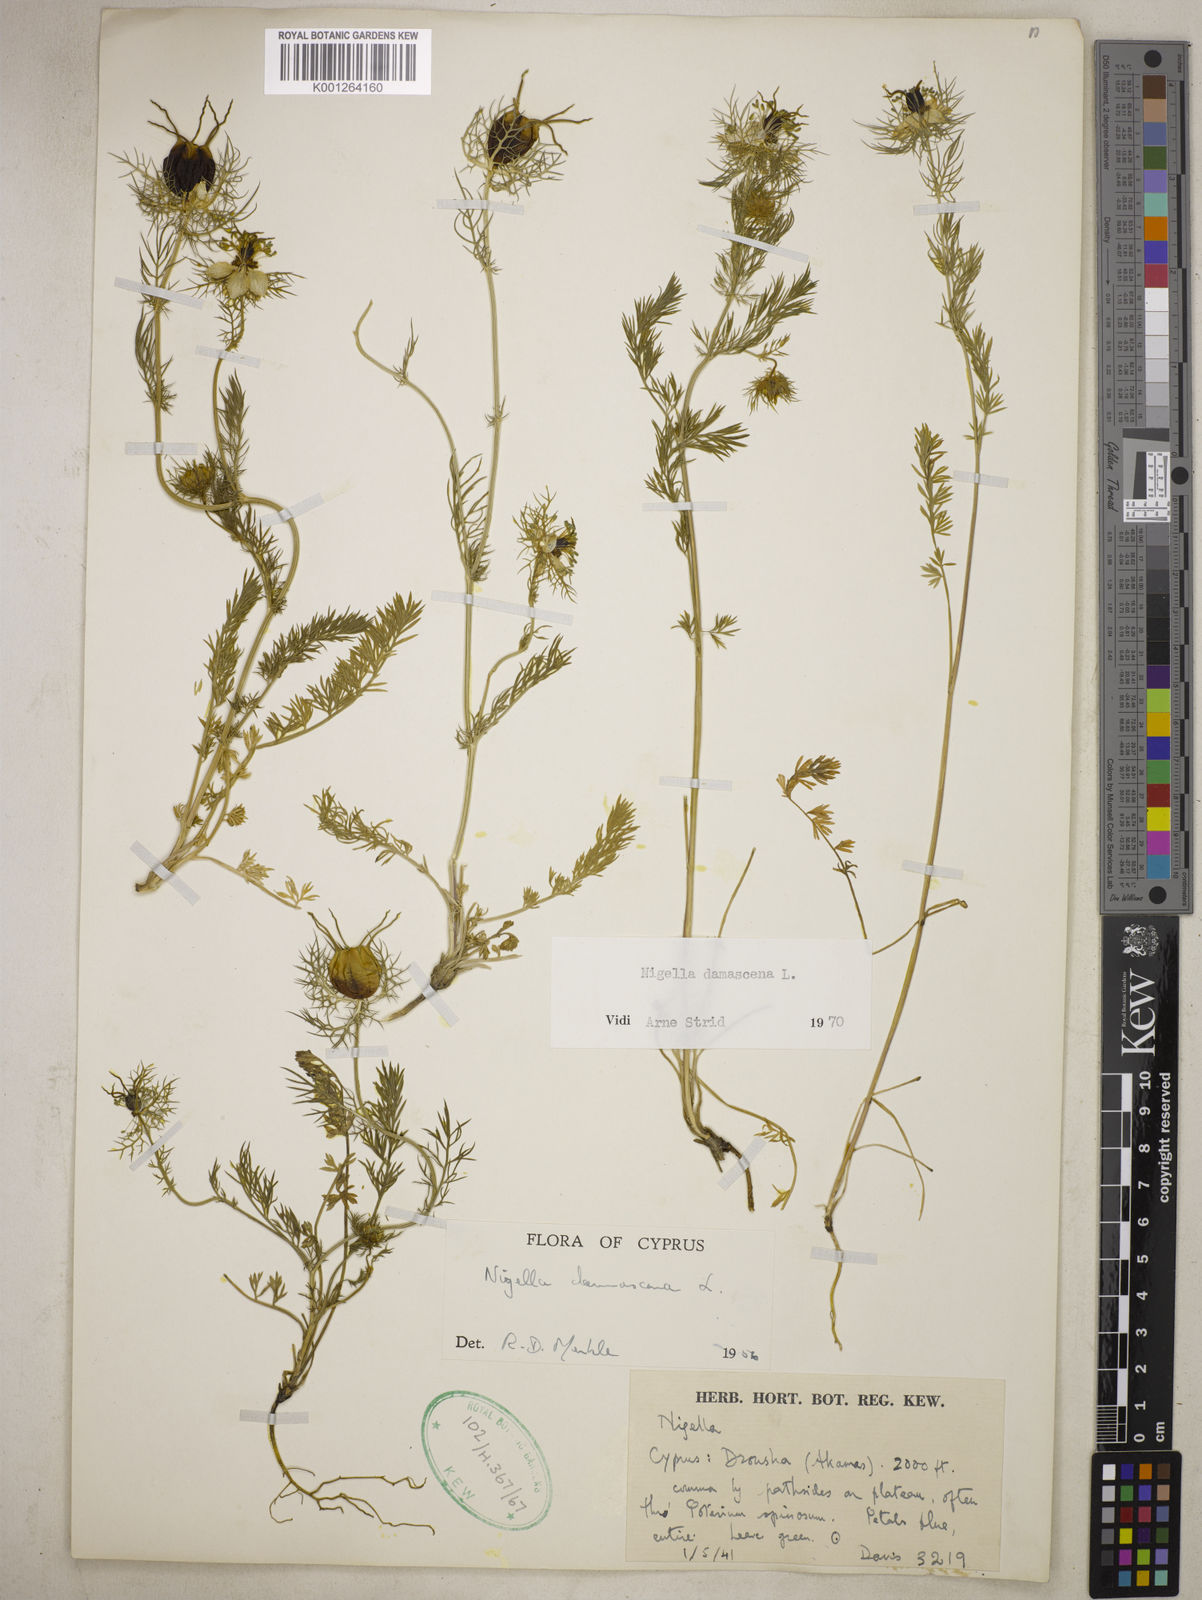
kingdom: Plantae
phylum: Tracheophyta
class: Magnoliopsida
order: Ranunculales
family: Ranunculaceae
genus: Nigella
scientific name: Nigella damascena
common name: Love-in-a-mist
